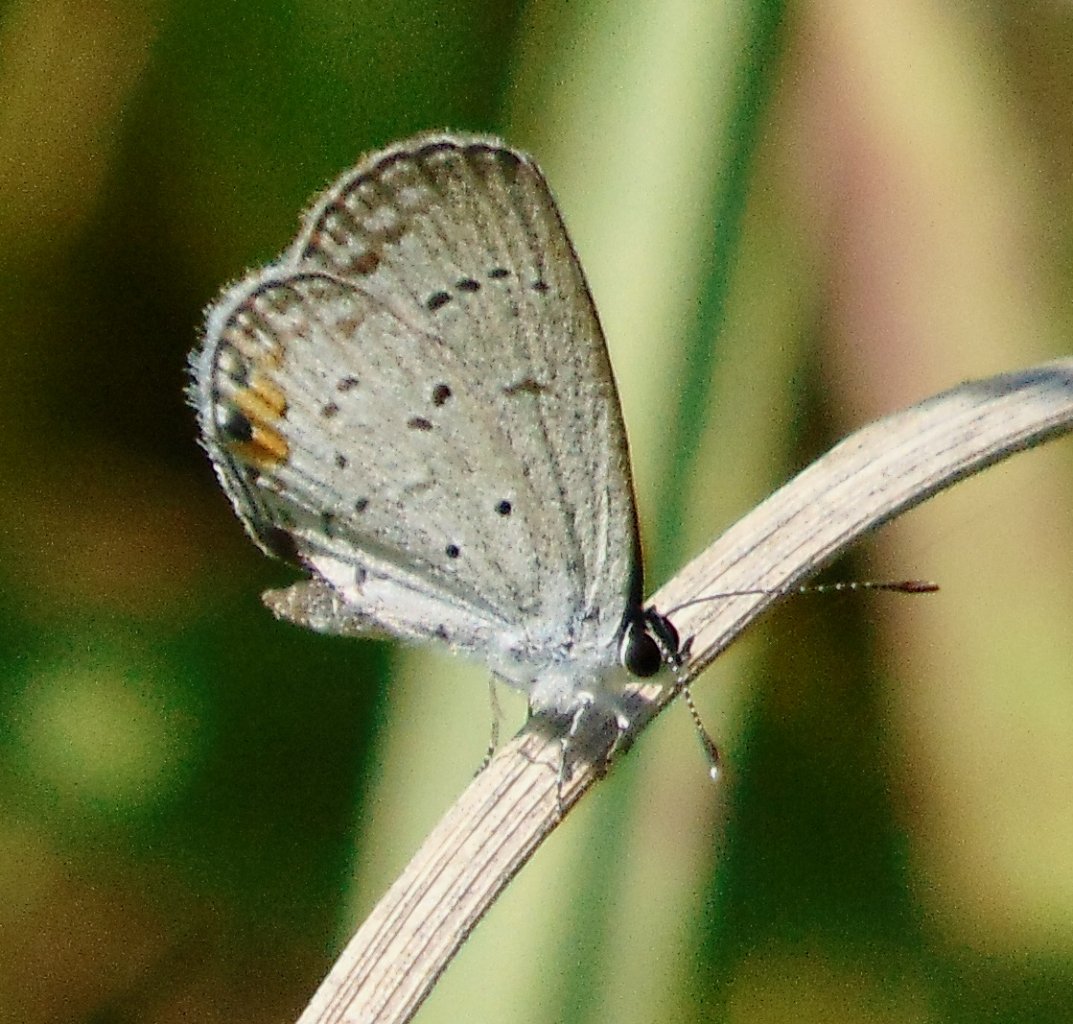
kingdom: Animalia
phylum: Arthropoda
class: Insecta
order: Lepidoptera
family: Lycaenidae
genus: Elkalyce
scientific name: Elkalyce comyntas
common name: Eastern Tailed-Blue
